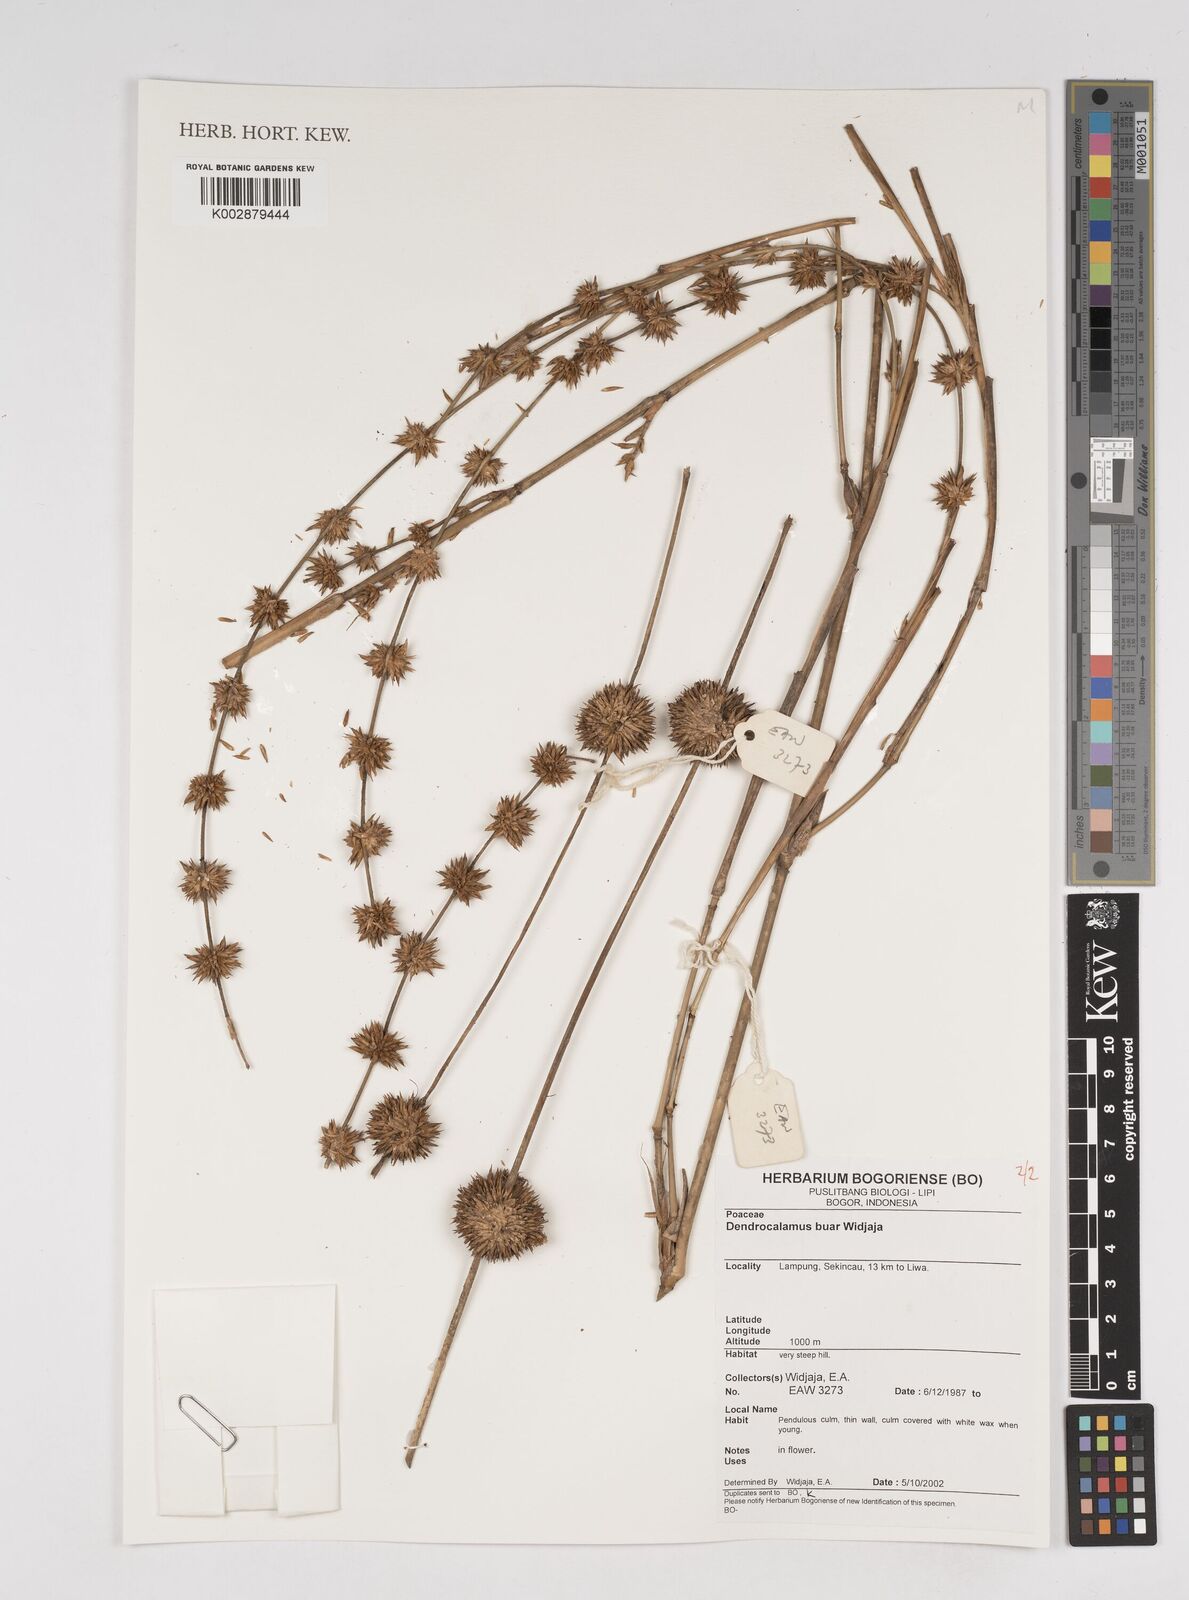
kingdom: Plantae
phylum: Tracheophyta
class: Liliopsida
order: Poales
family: Poaceae
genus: Dendrocalamus
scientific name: Dendrocalamus buar
